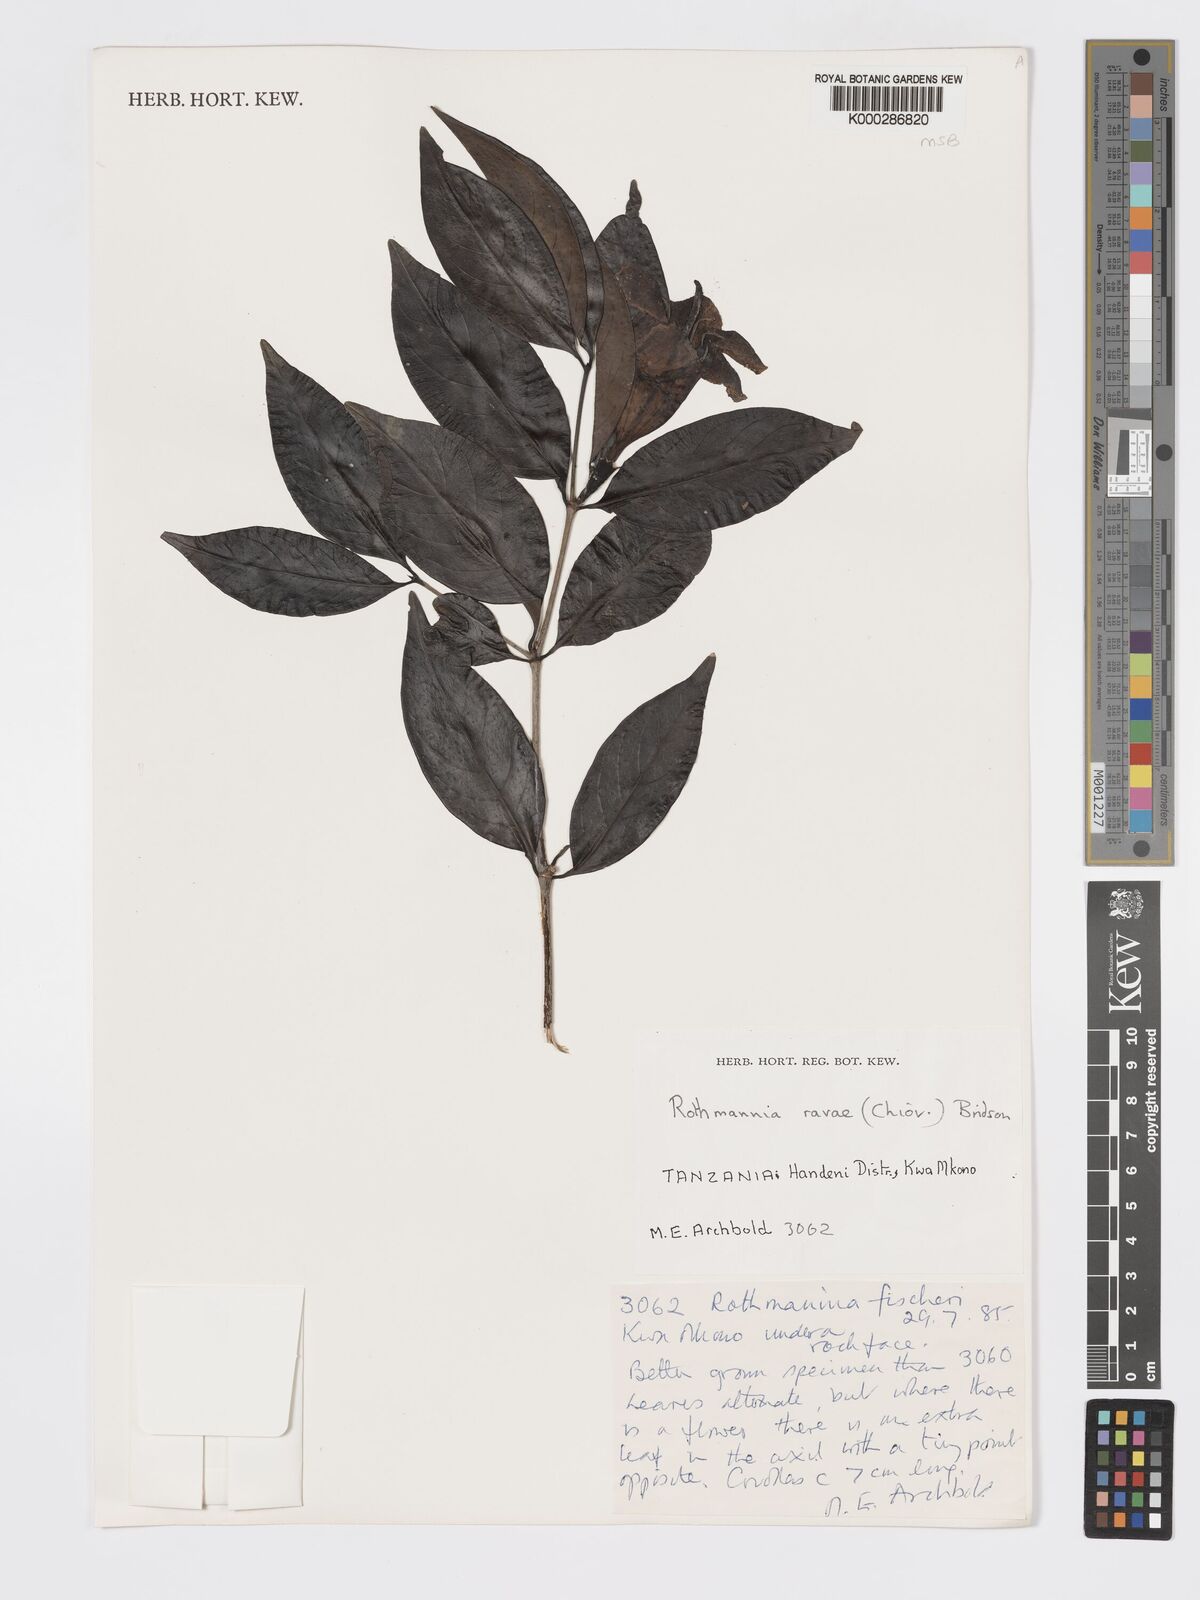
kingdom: Plantae
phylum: Tracheophyta
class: Magnoliopsida
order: Gentianales
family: Rubiaceae
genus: Rothmannia
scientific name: Rothmannia ravae
